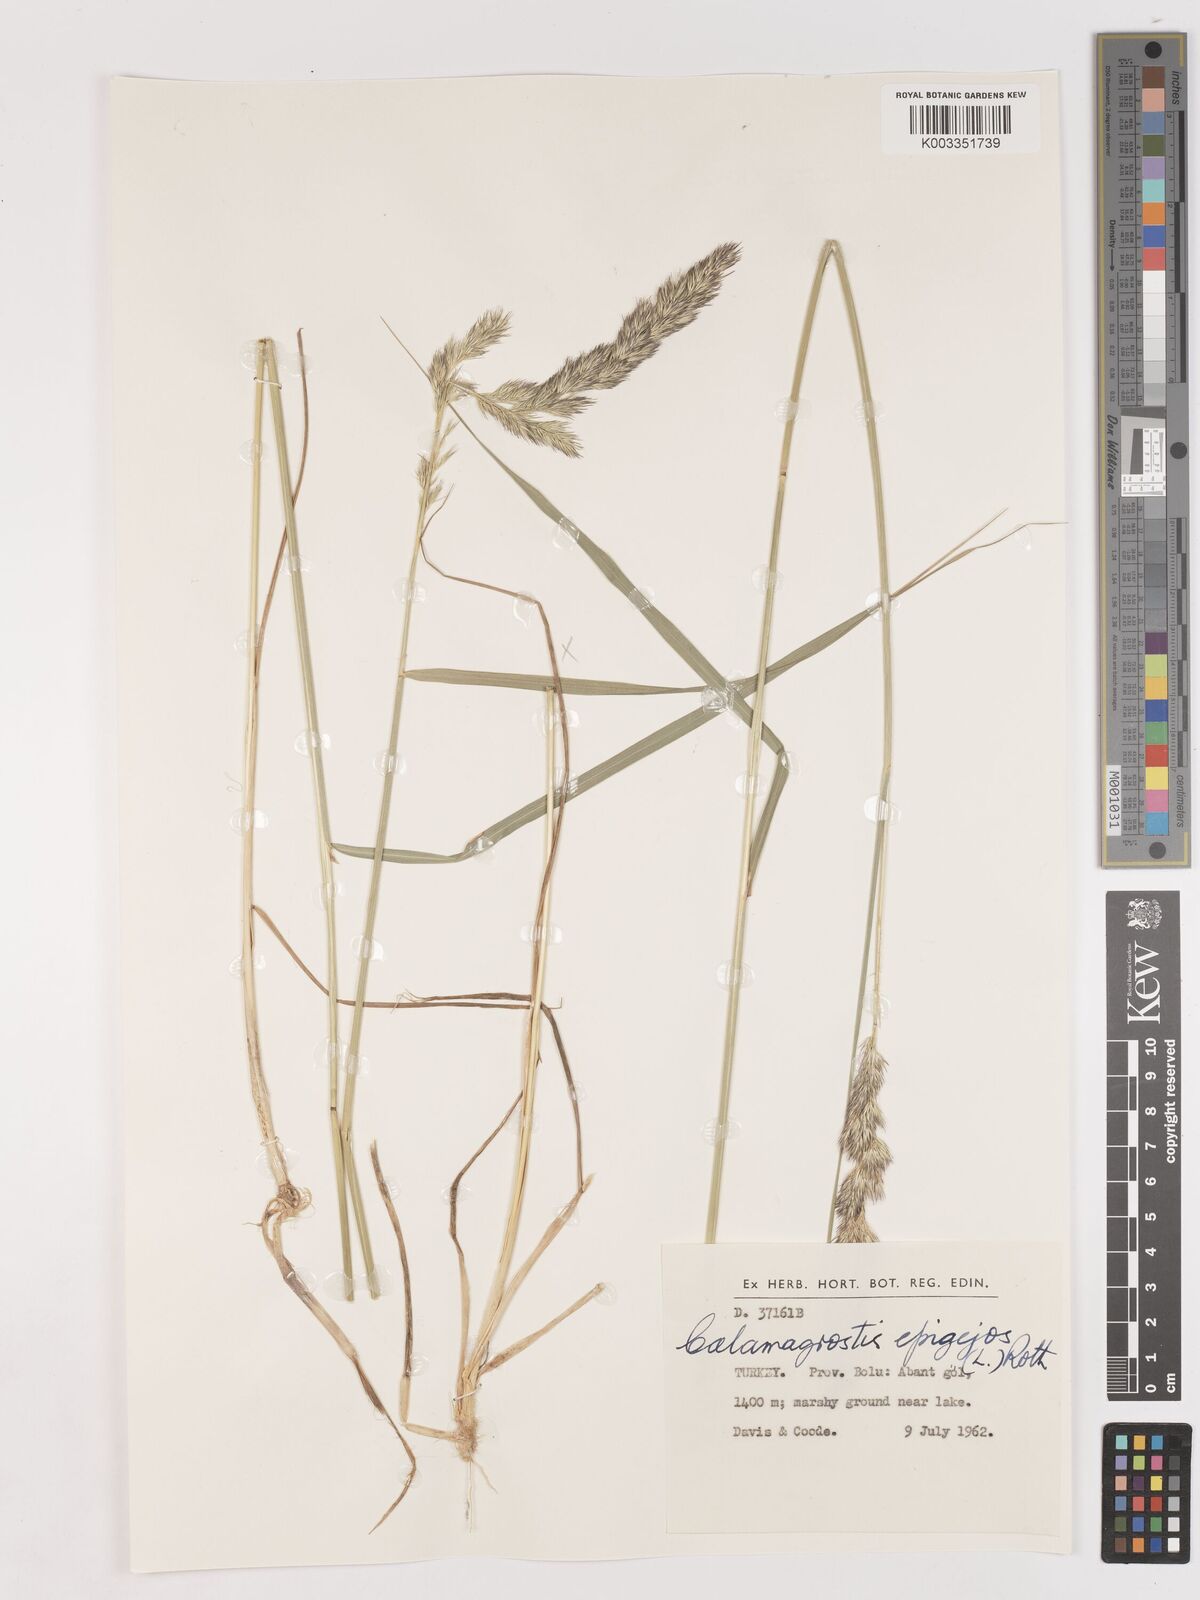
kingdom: Plantae
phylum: Tracheophyta
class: Liliopsida
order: Poales
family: Poaceae
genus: Calamagrostis
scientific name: Calamagrostis
